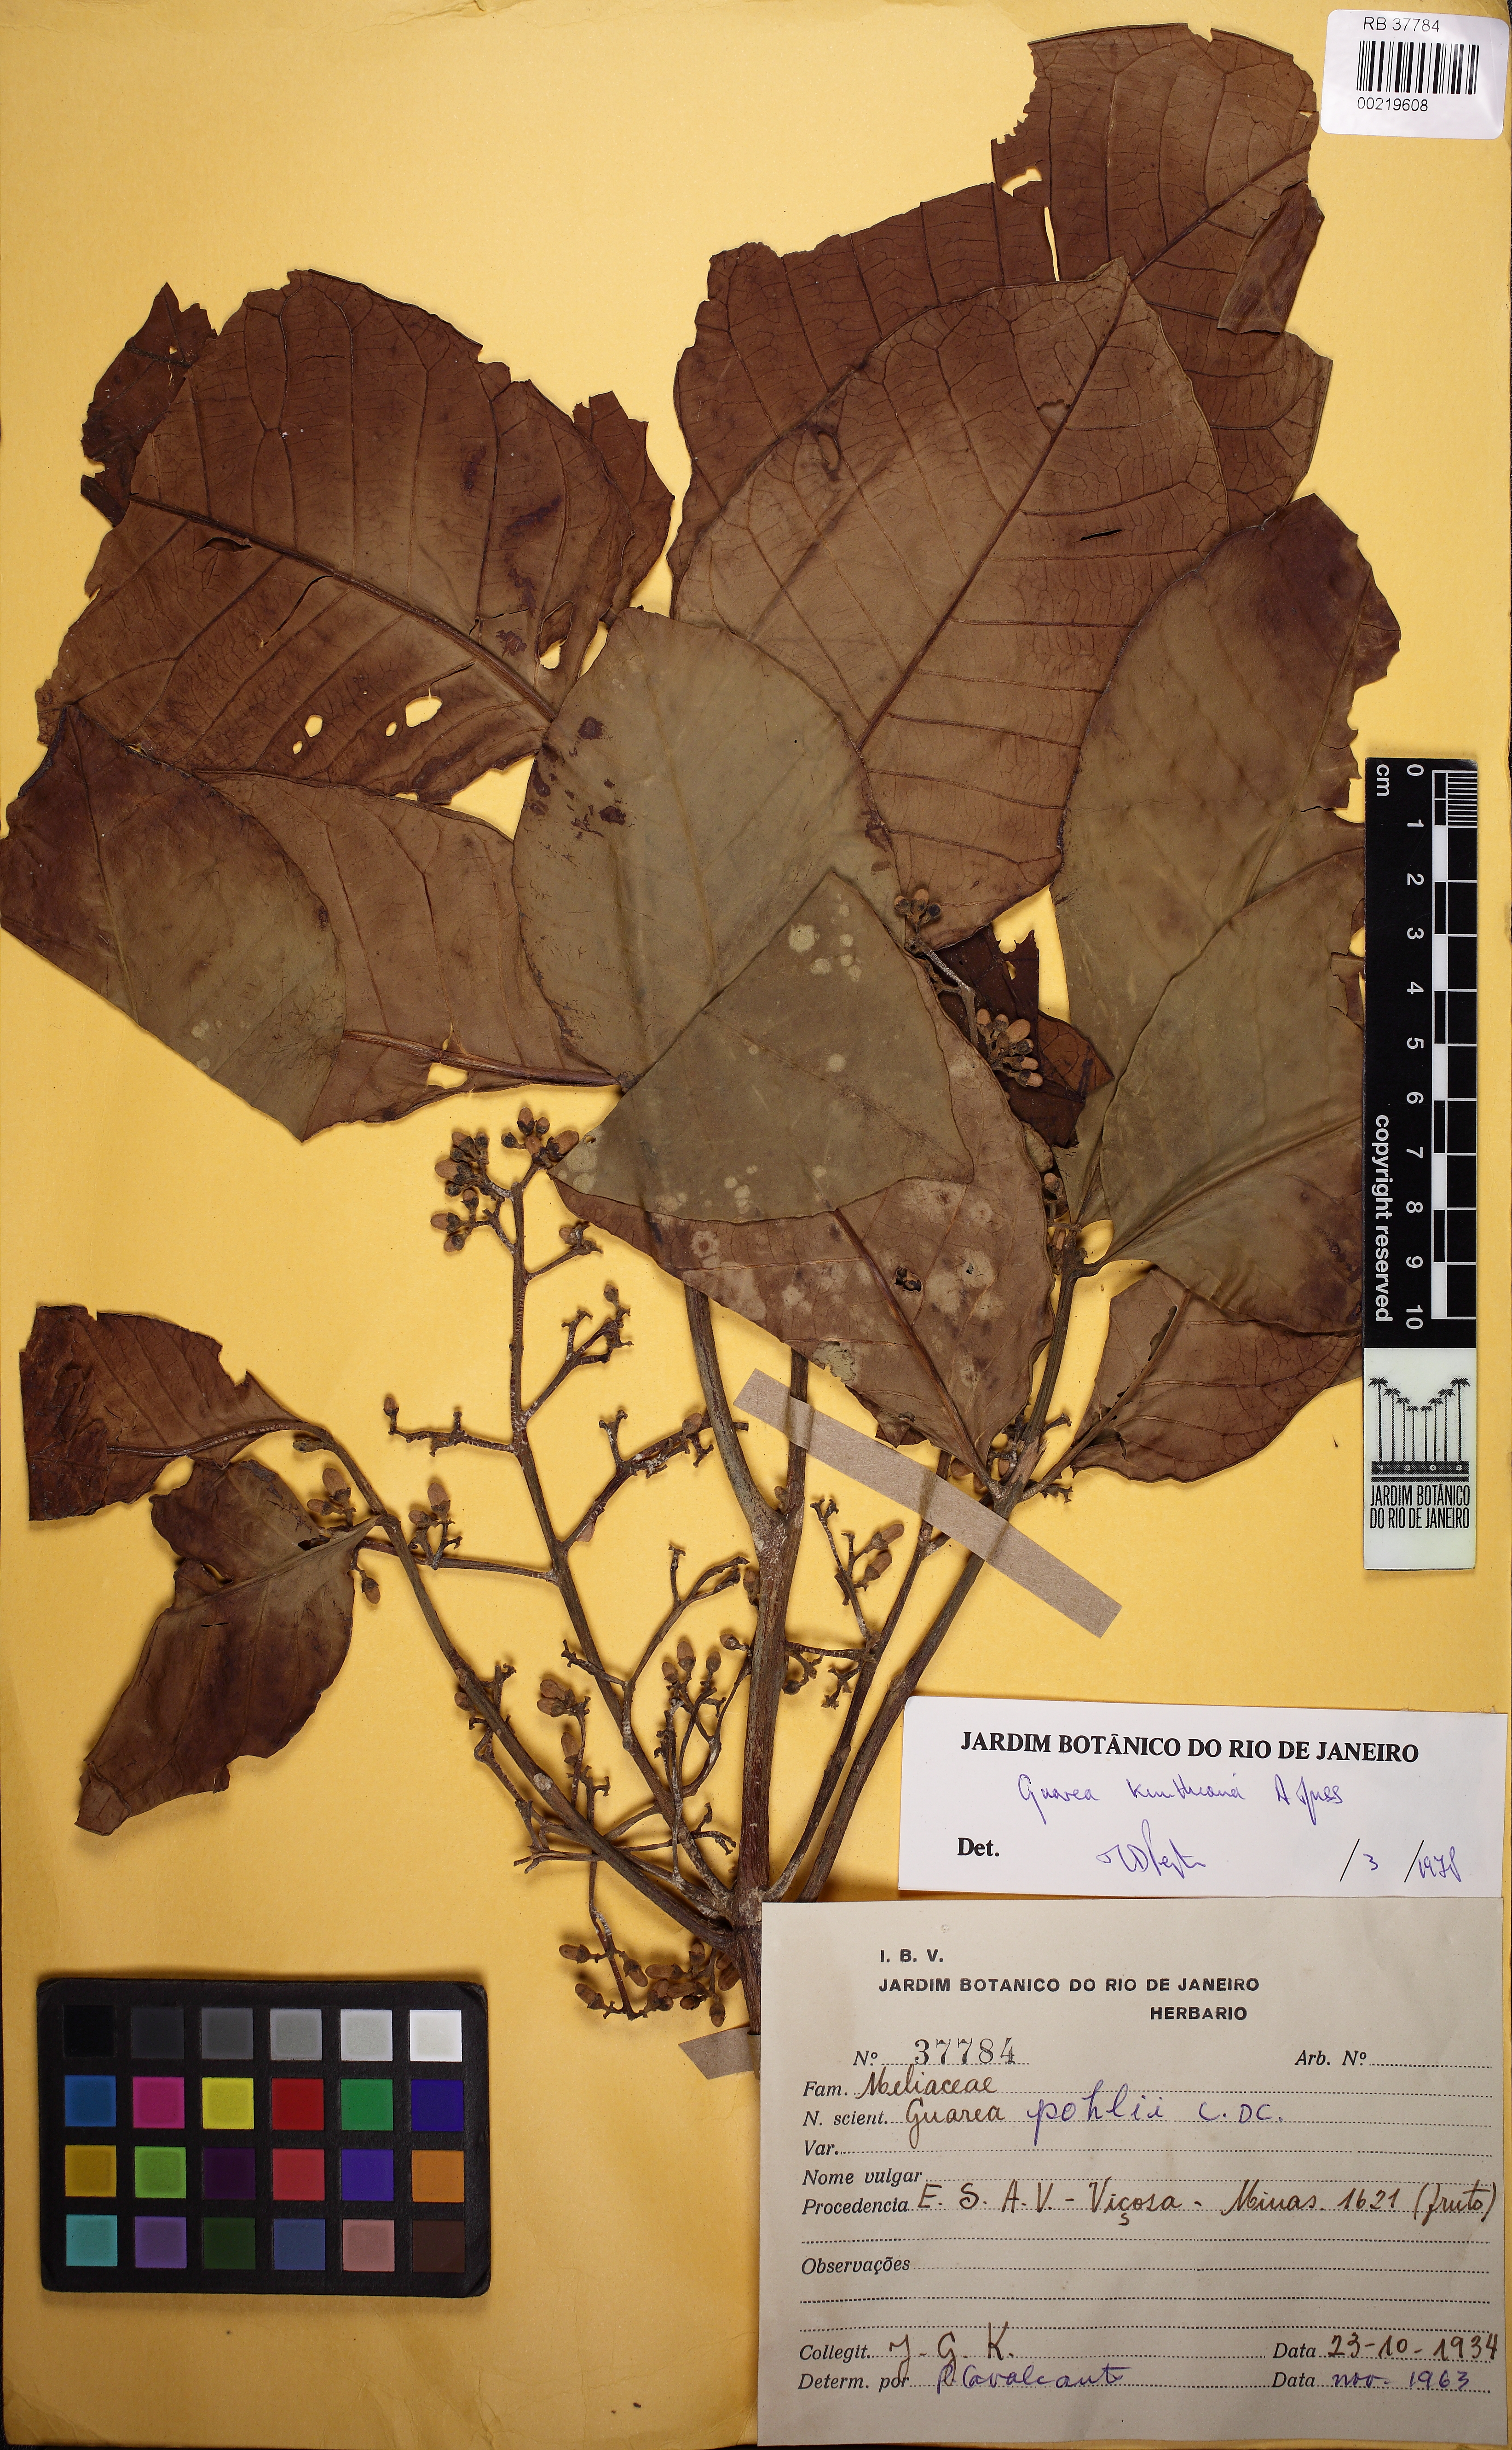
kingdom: Plantae
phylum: Tracheophyta
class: Magnoliopsida
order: Sapindales
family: Meliaceae
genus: Guarea
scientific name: Guarea kunthiana
